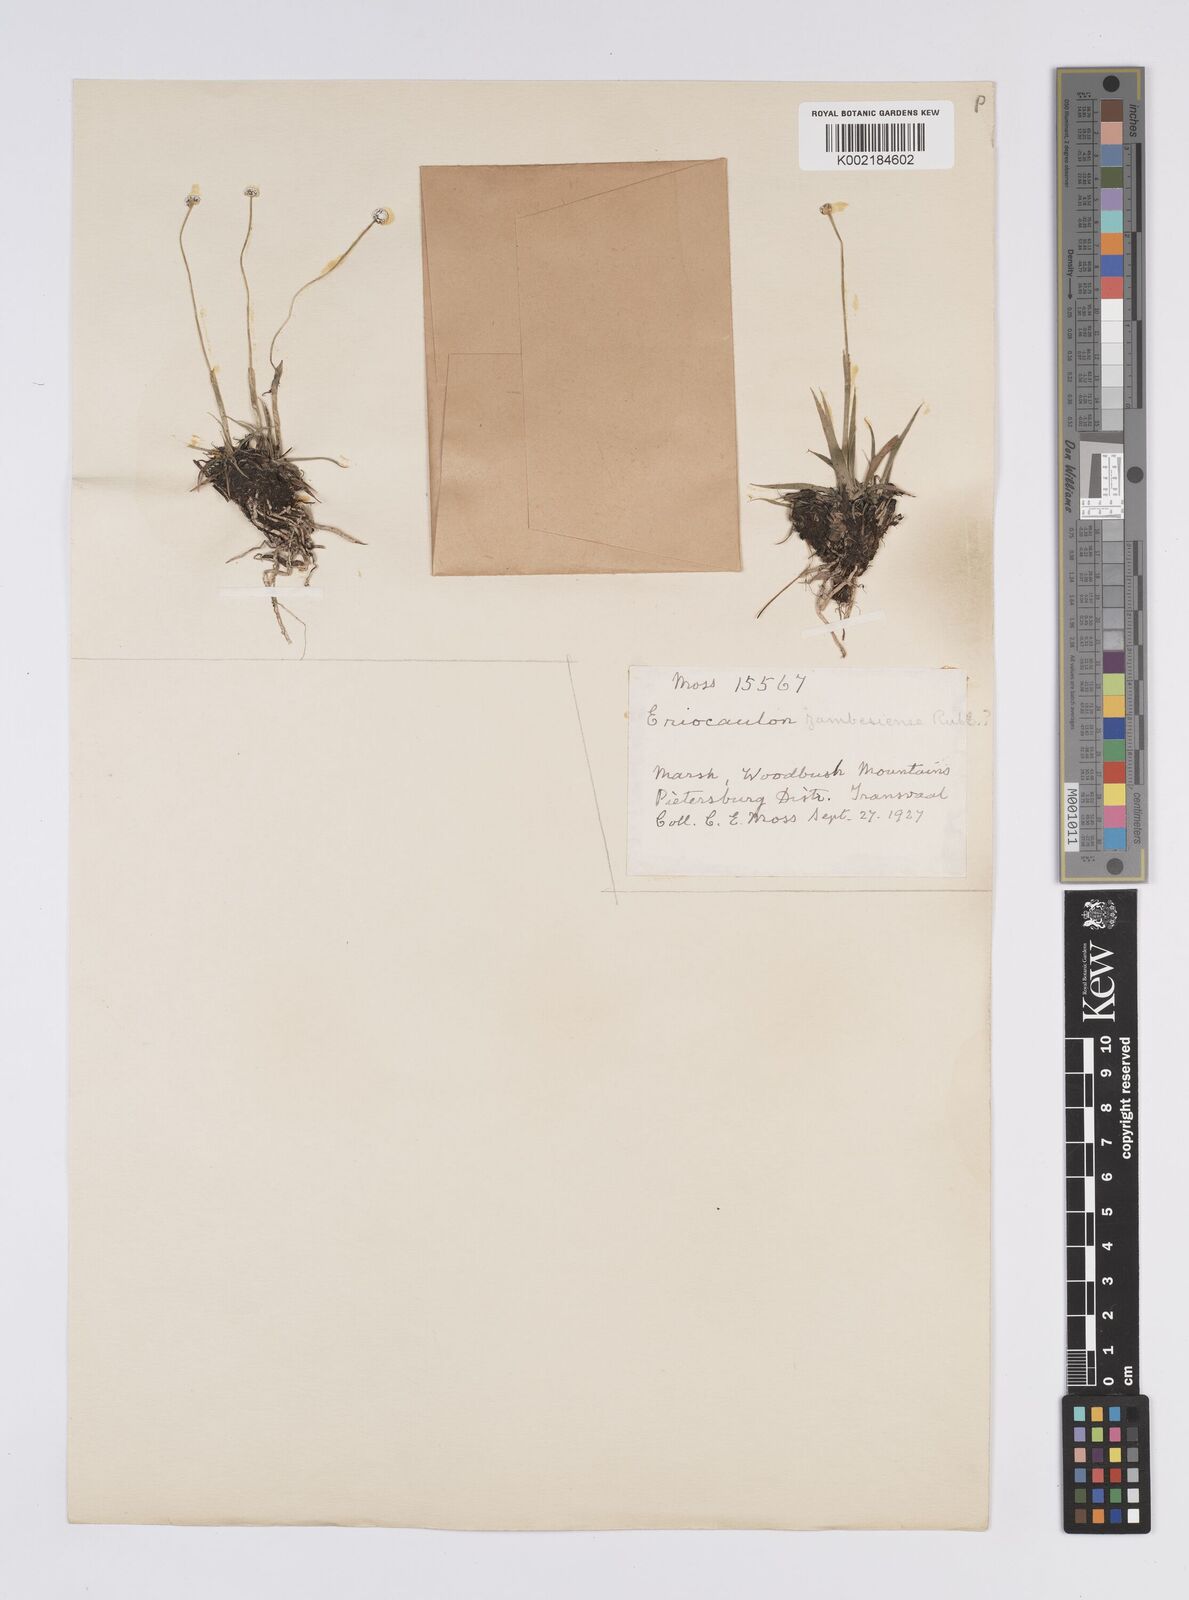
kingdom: Plantae
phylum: Tracheophyta
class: Liliopsida
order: Poales
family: Eriocaulaceae
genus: Eriocaulon
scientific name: Eriocaulon
